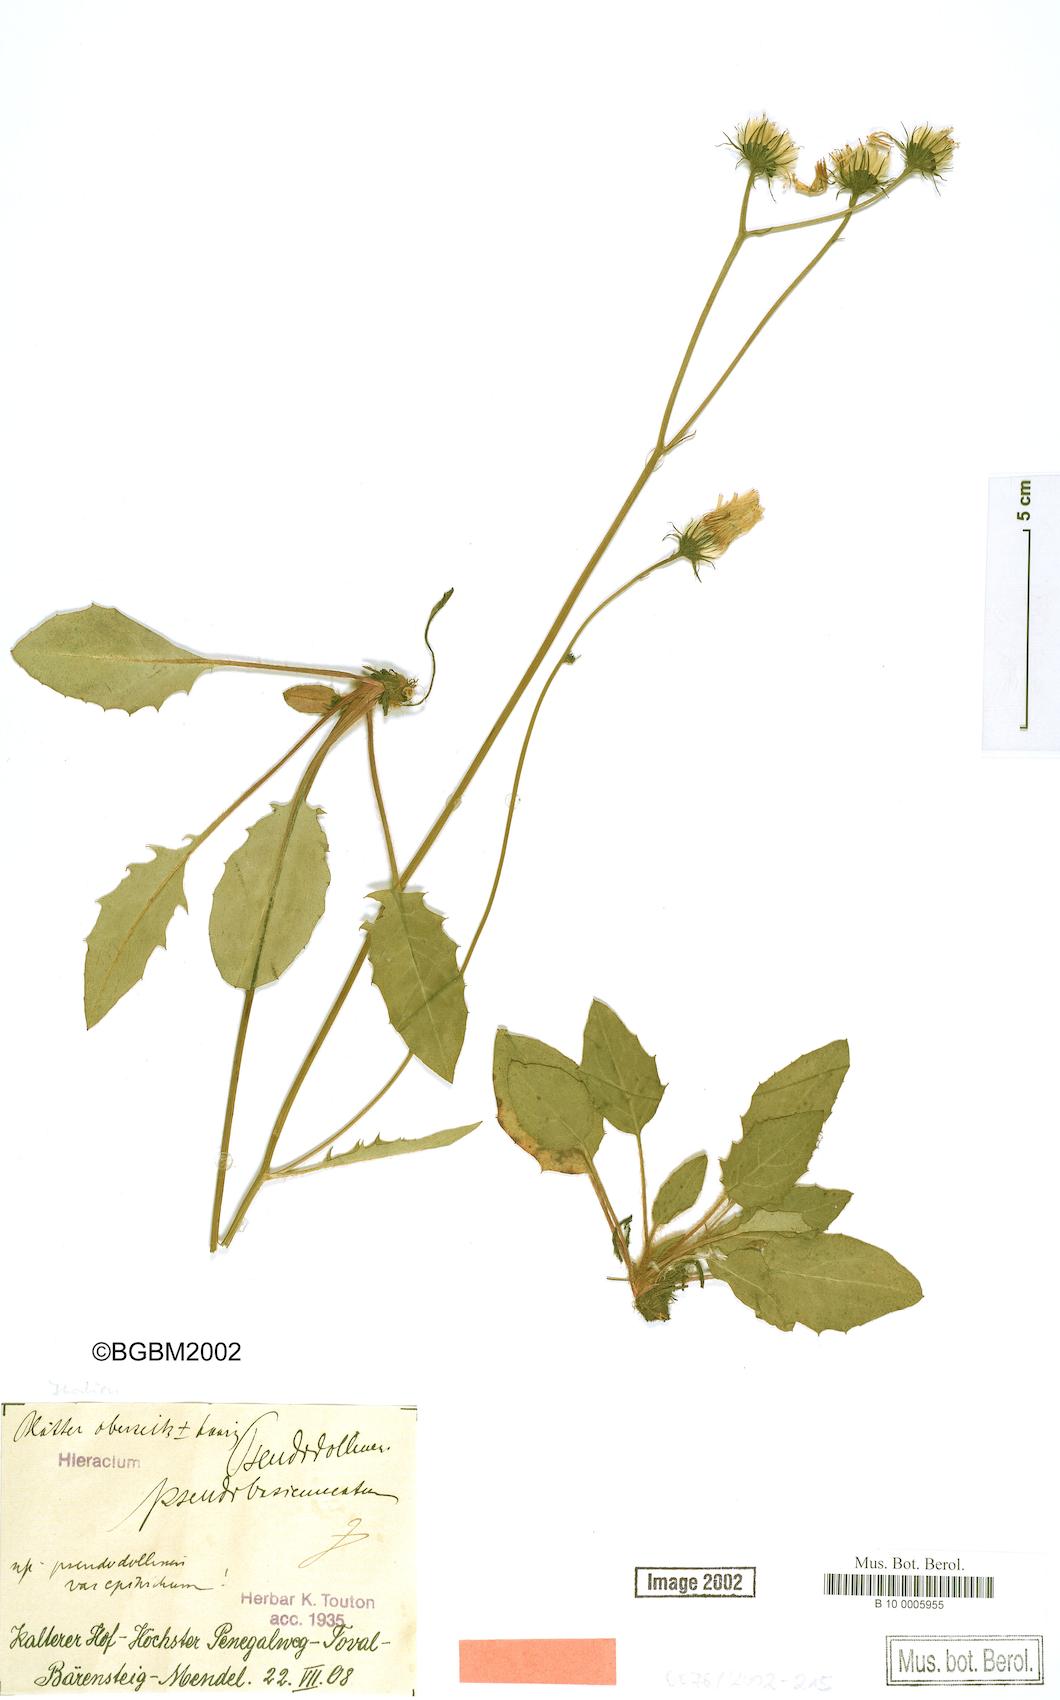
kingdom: Plantae
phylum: Tracheophyta
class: Magnoliopsida
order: Asterales
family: Asteraceae
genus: Hieracium
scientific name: Hieracium bifidum
